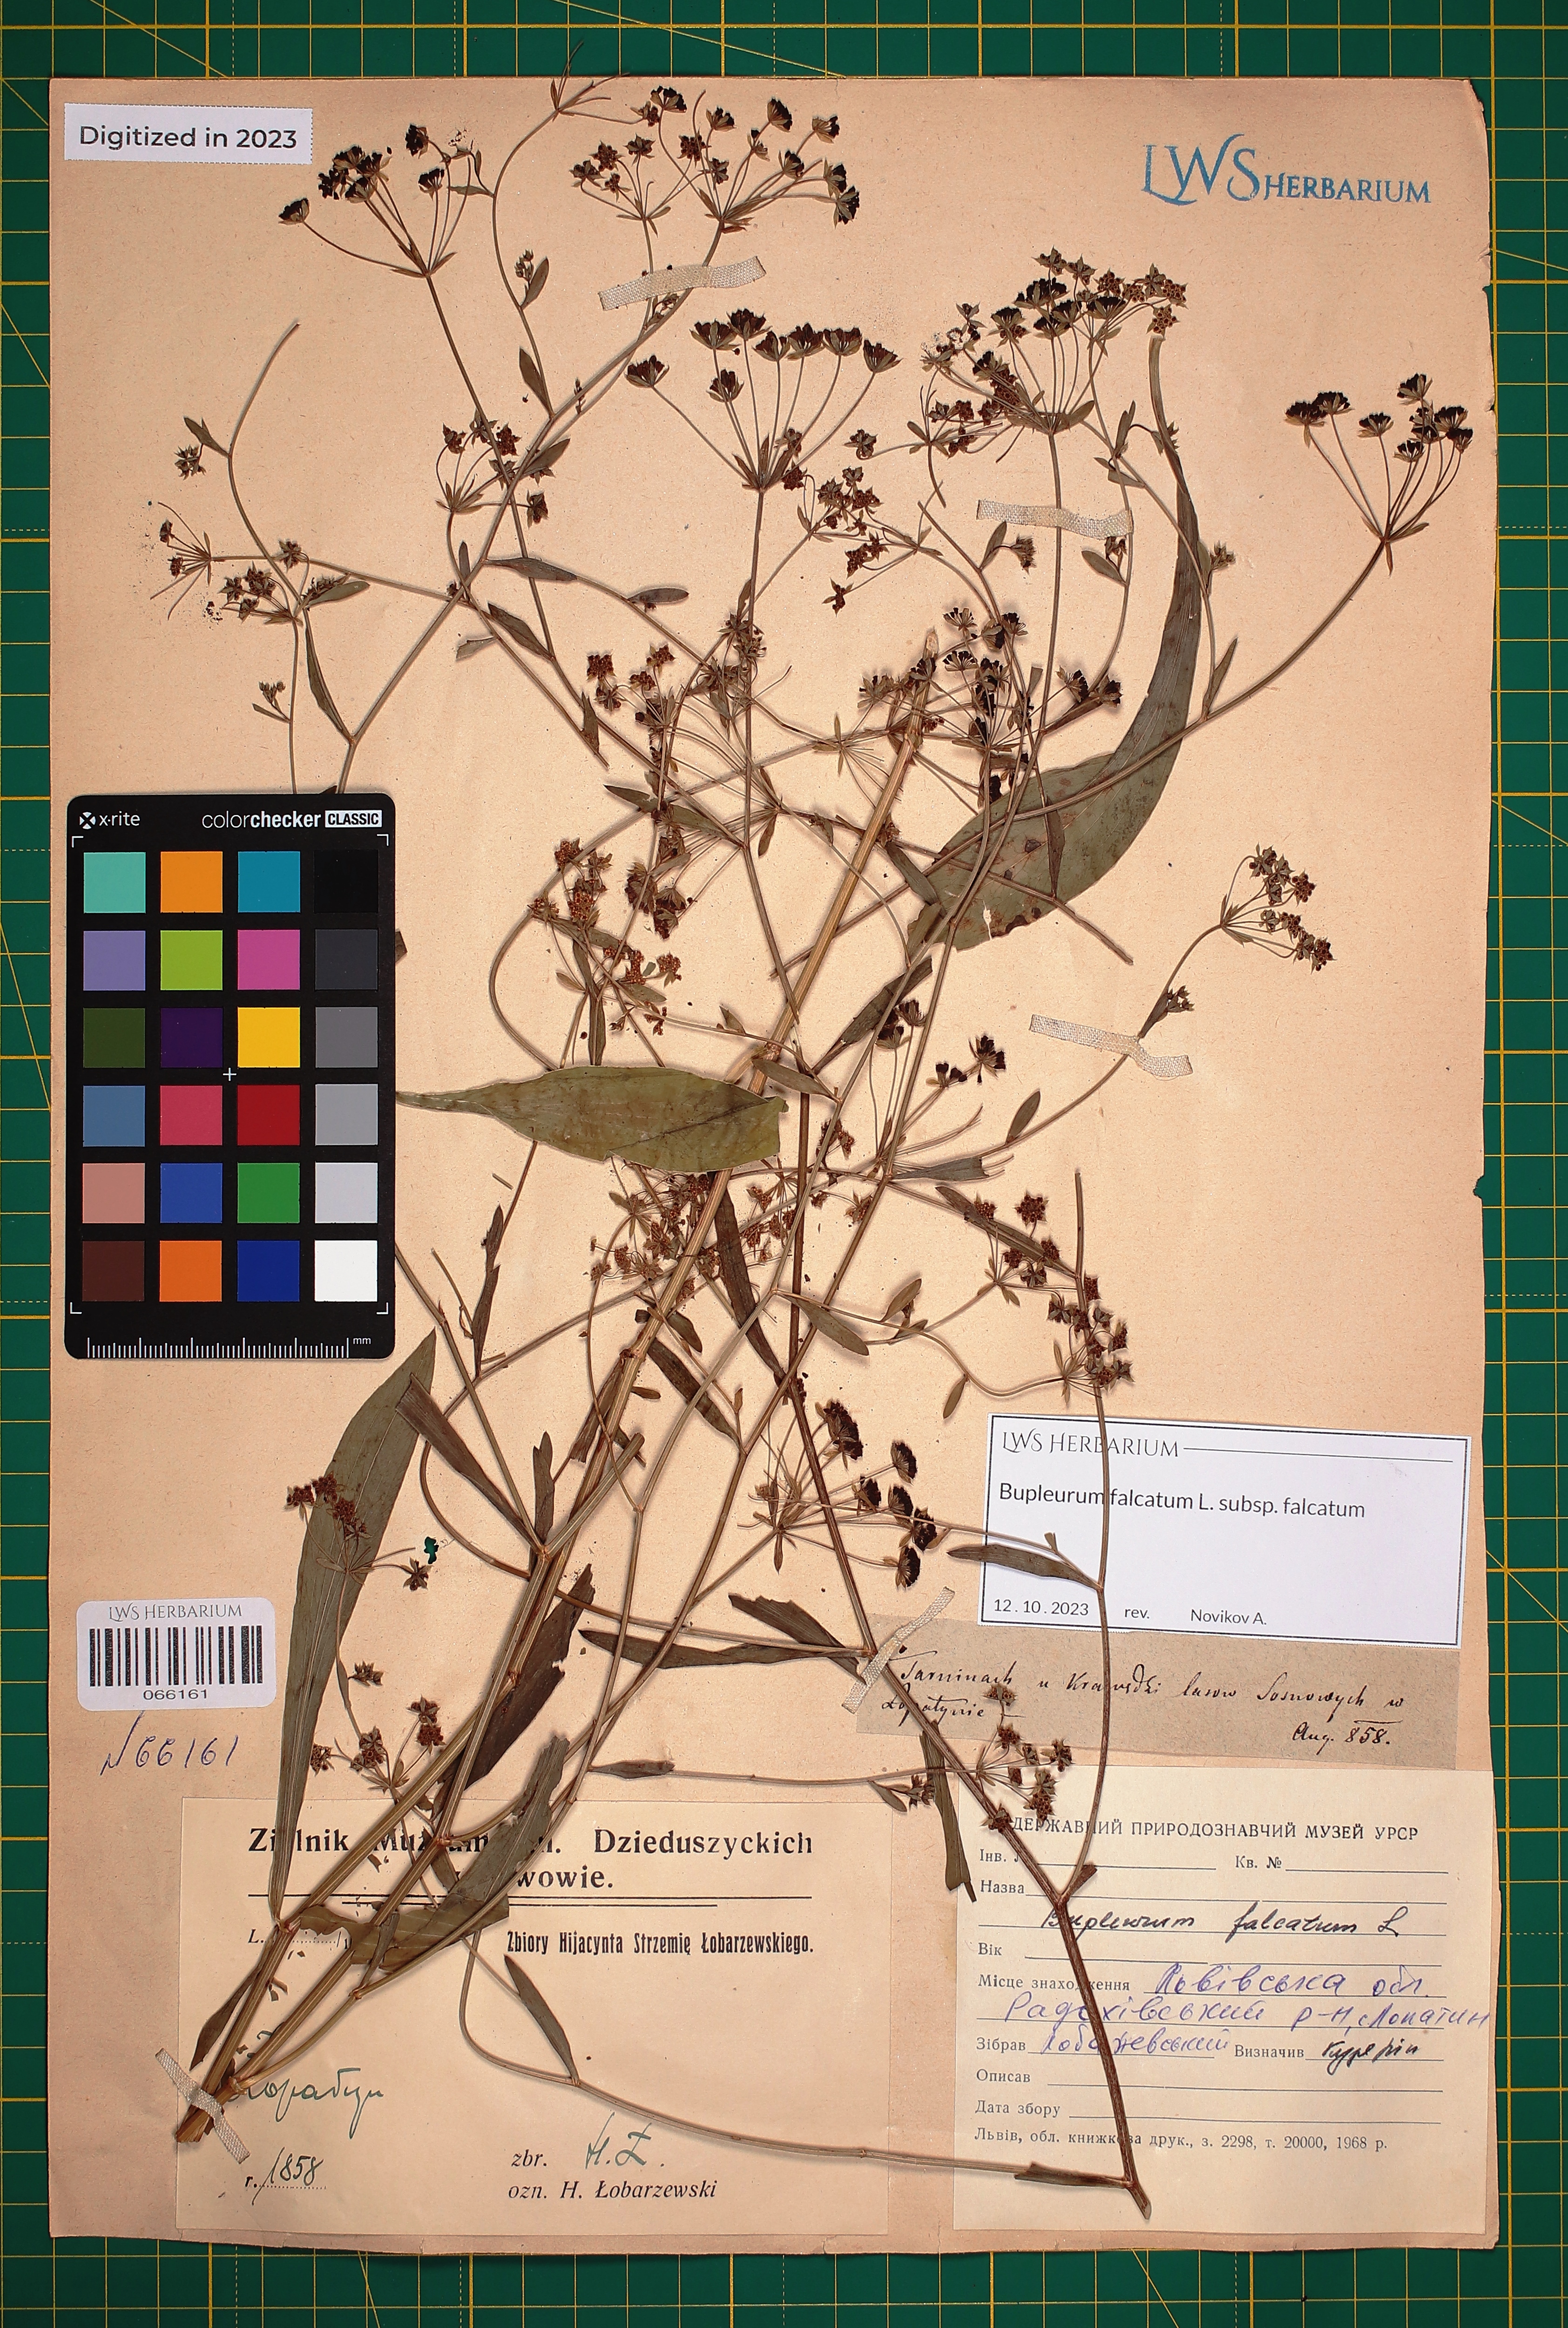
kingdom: Plantae
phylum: Tracheophyta
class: Magnoliopsida
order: Apiales
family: Apiaceae
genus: Bupleurum
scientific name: Bupleurum falcatum
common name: Sickle-leaved hare's-ear
